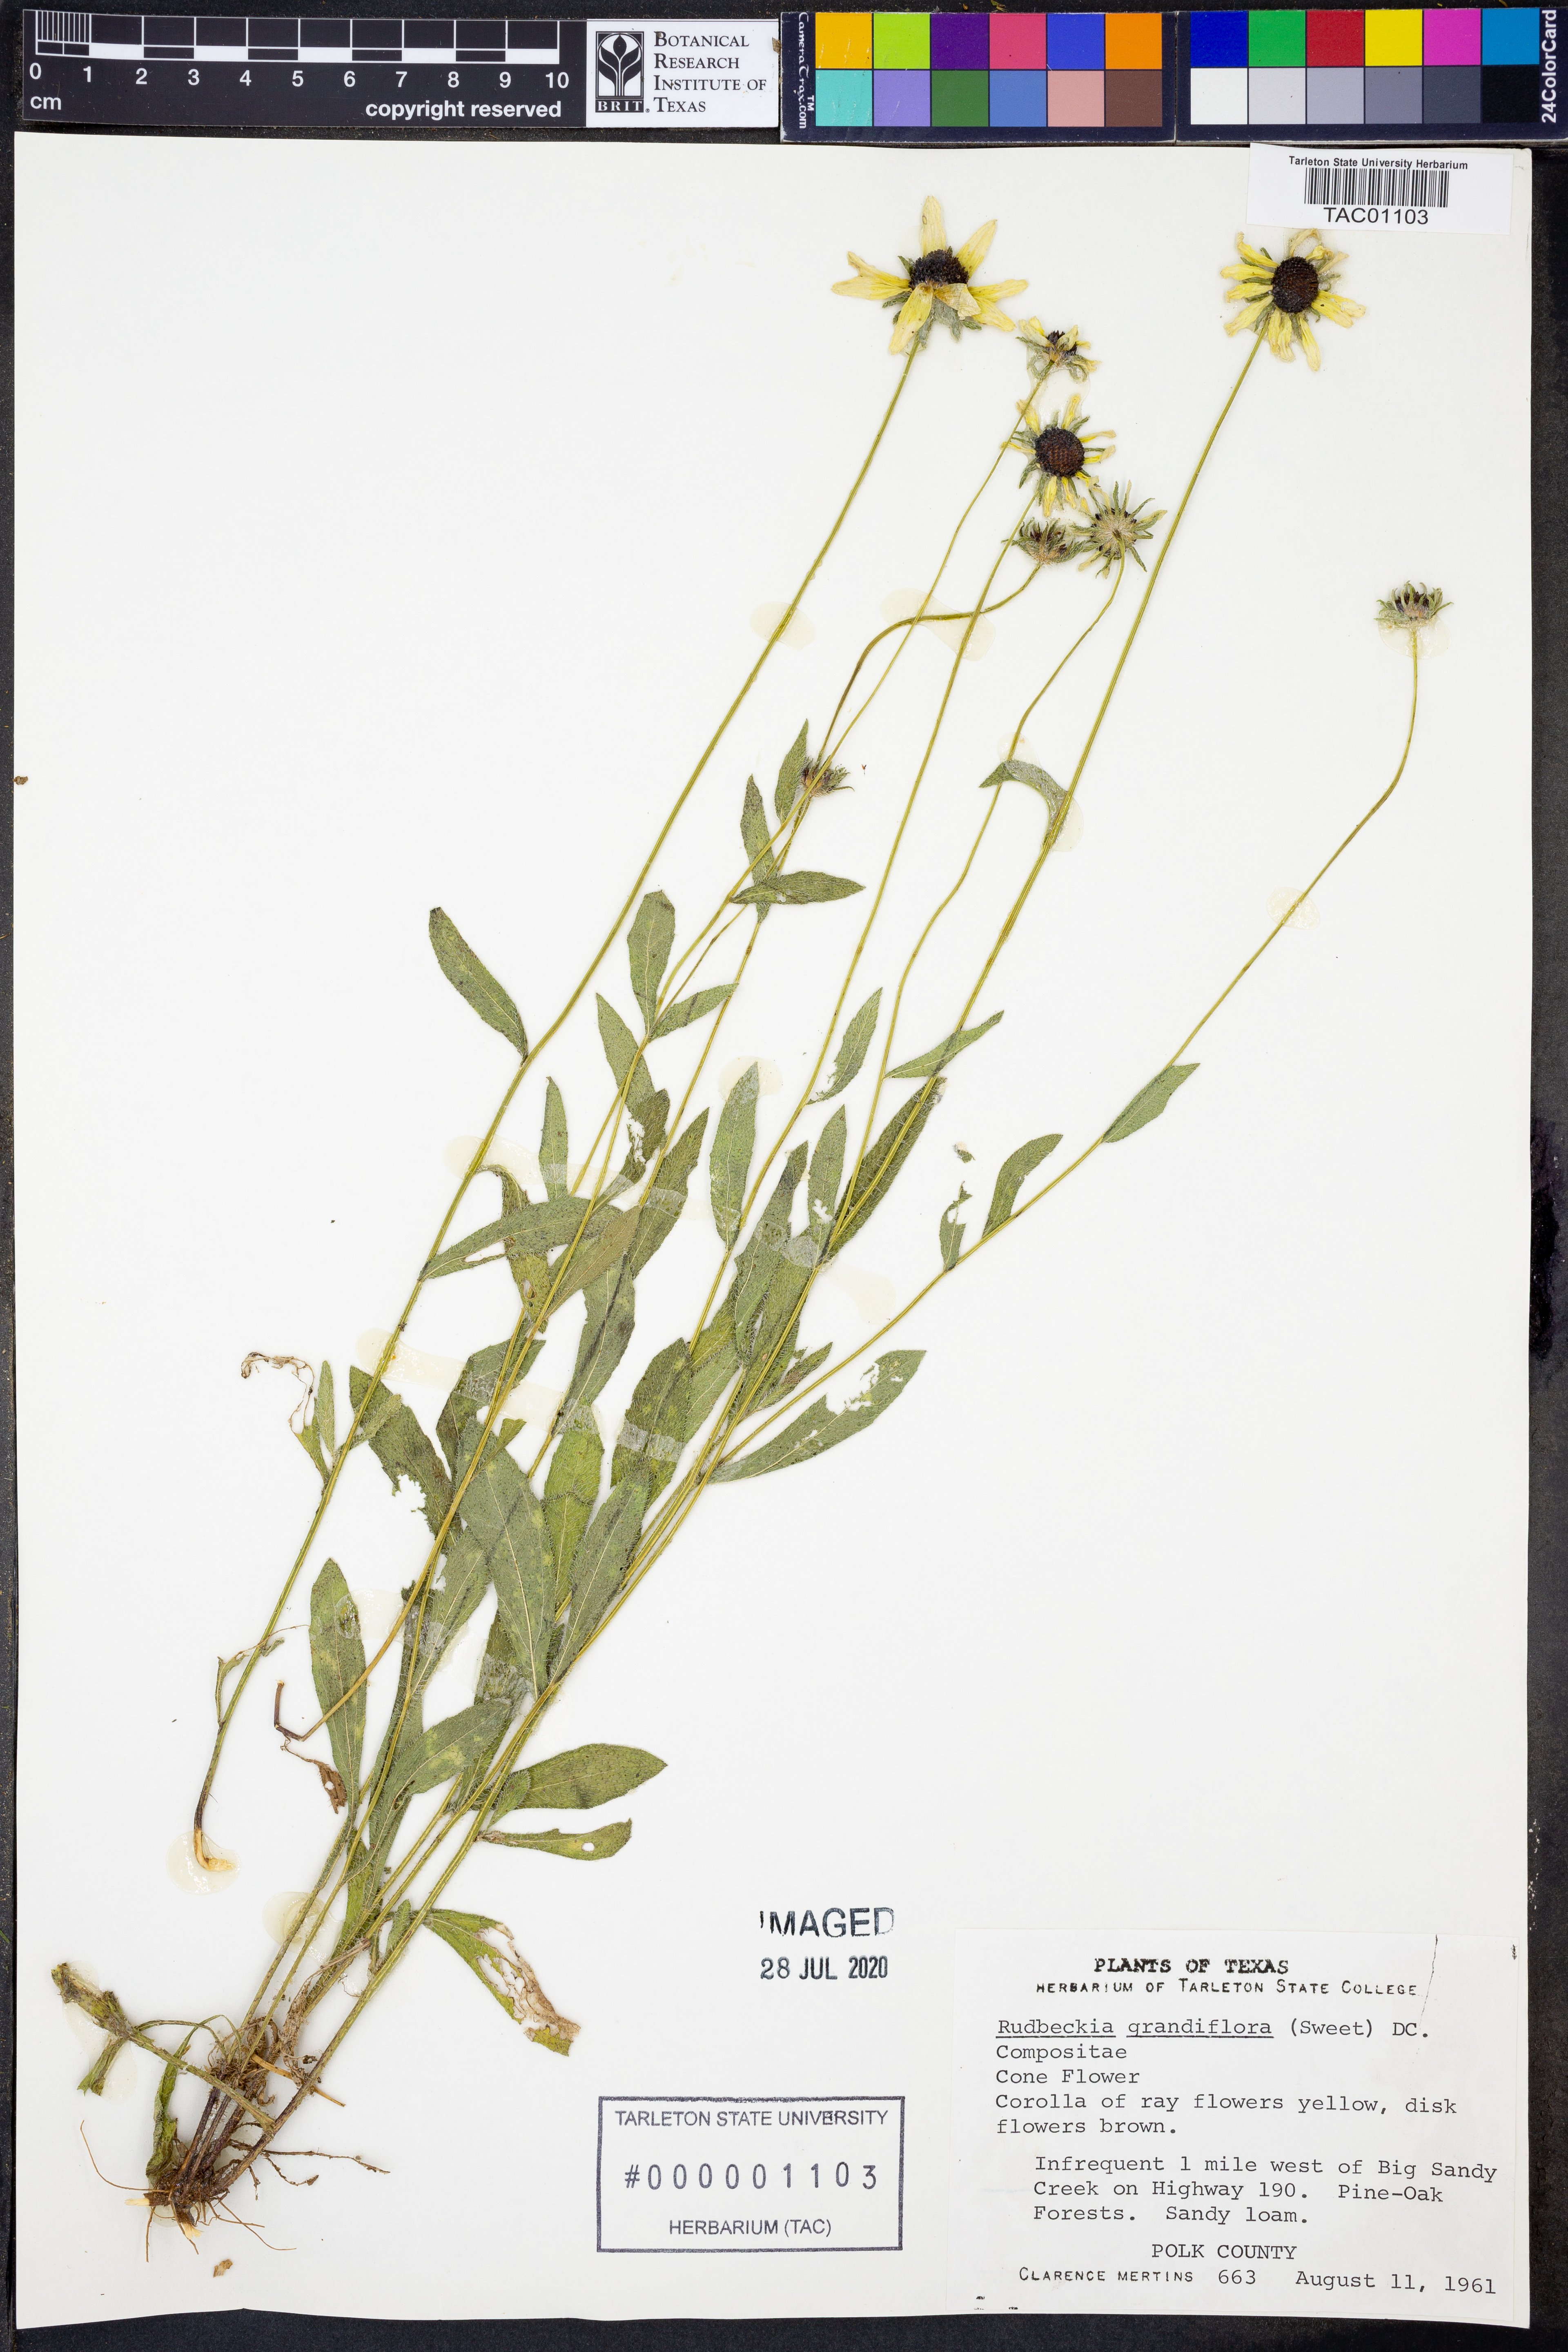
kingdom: Plantae
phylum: Tracheophyta
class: Magnoliopsida
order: Asterales
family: Asteraceae
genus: Rudbeckia
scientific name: Rudbeckia grandiflora
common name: Large-flowered coneflower
